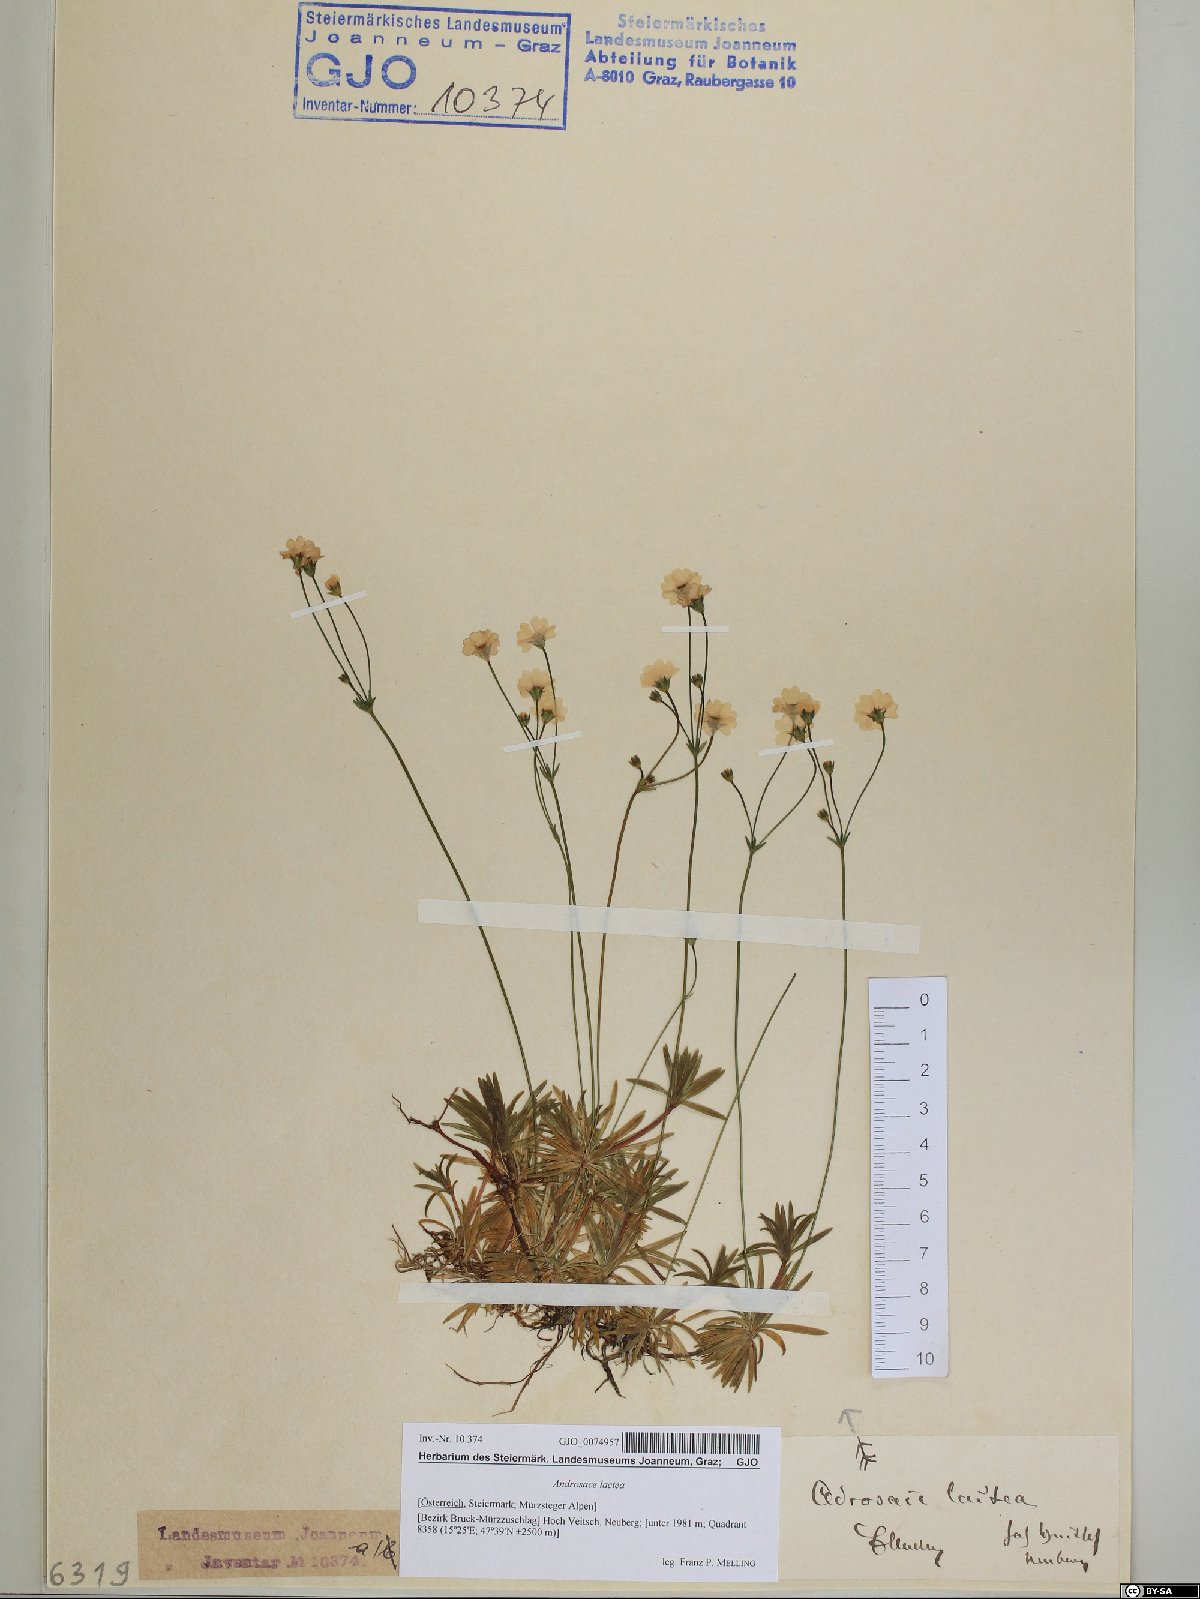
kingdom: Plantae
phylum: Tracheophyta
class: Magnoliopsida
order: Ericales
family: Primulaceae
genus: Androsace
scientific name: Androsace lactea
